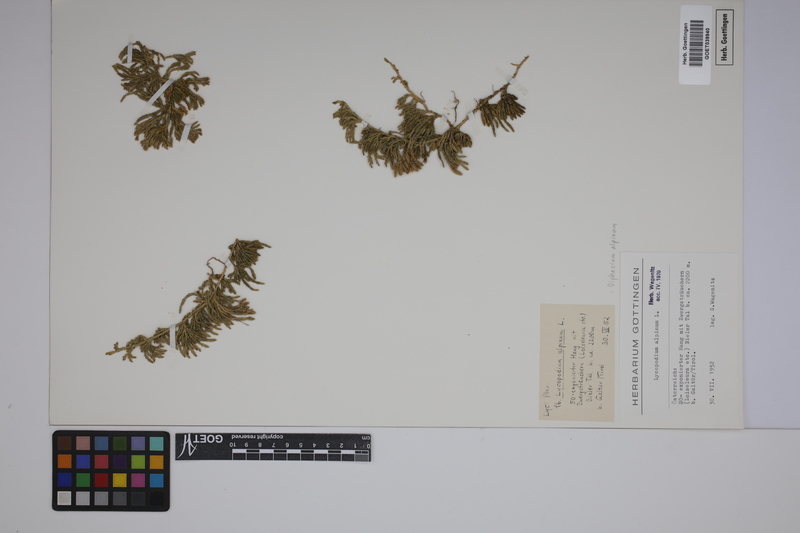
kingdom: Plantae
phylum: Tracheophyta
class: Lycopodiopsida
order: Lycopodiales
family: Lycopodiaceae
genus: Diphasiastrum
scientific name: Diphasiastrum alpinum
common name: Alpine clubmoss
